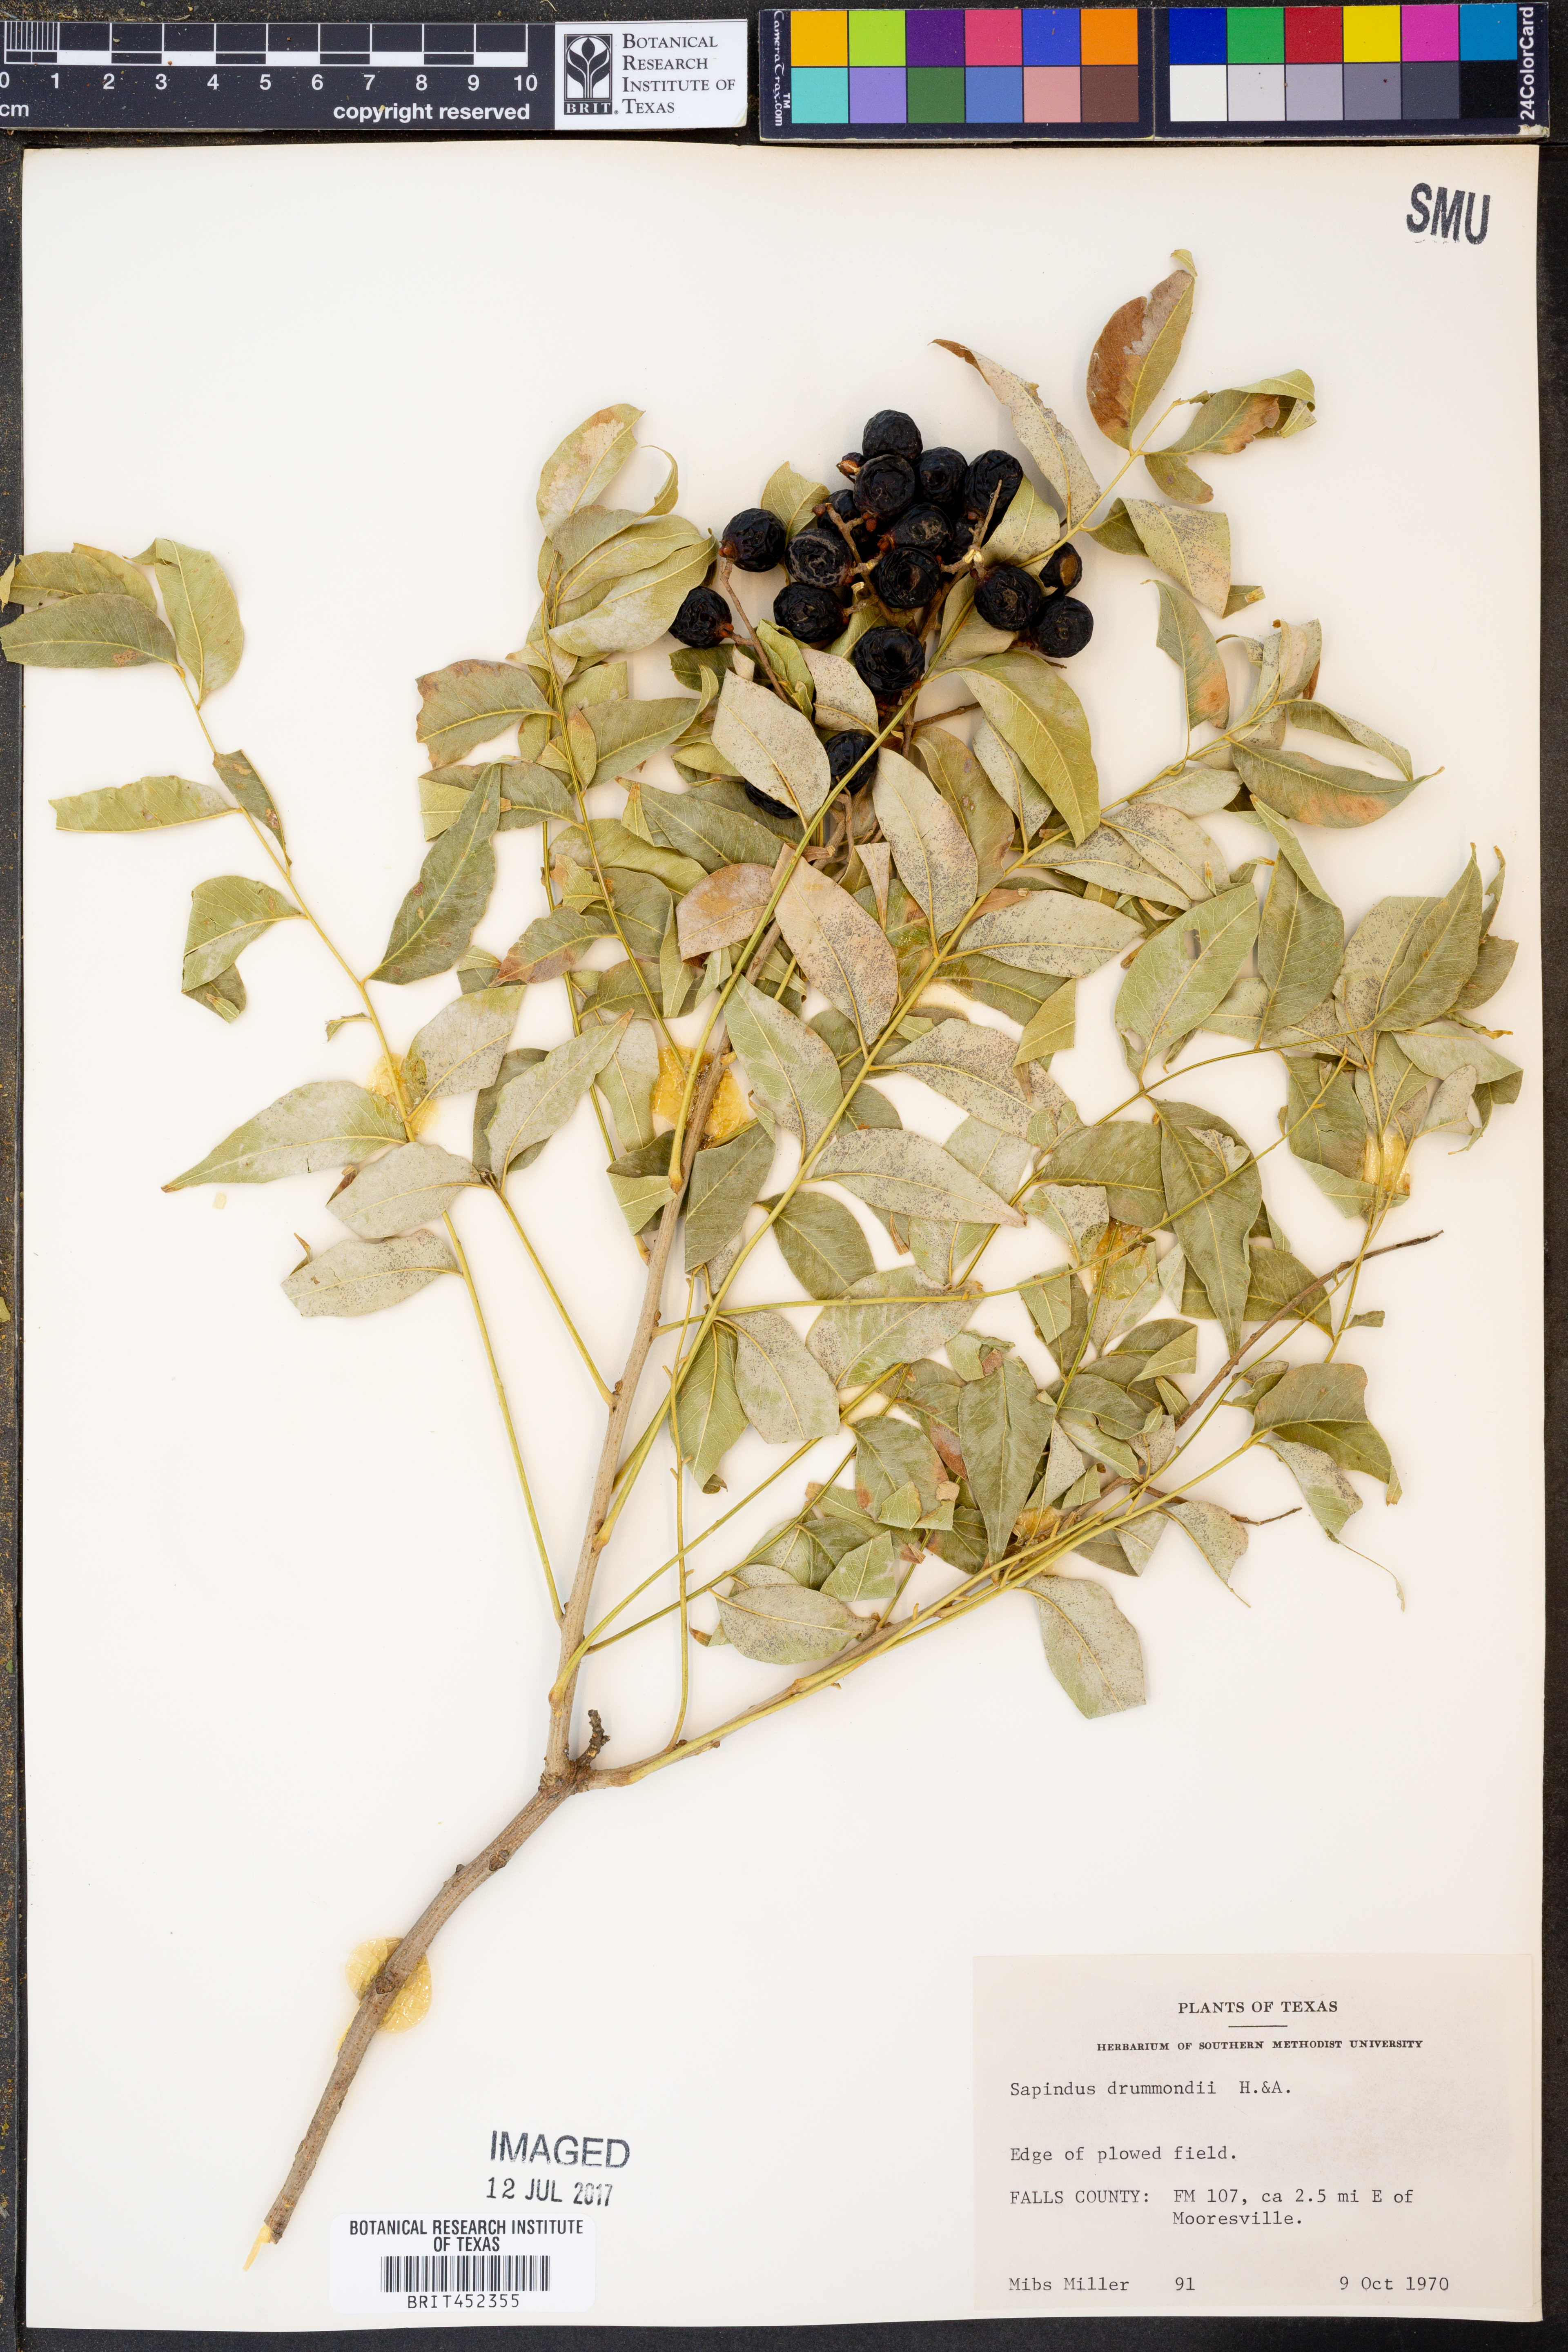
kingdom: Plantae
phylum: Tracheophyta
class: Magnoliopsida
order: Sapindales
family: Sapindaceae
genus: Sapindus
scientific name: Sapindus drummondii
